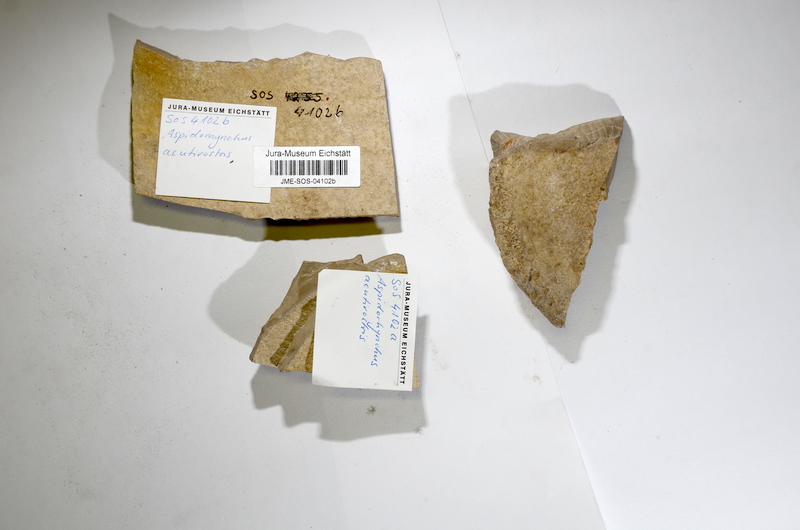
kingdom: Animalia
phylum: Chordata
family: Aspidorhynchidae
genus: Aspidorhynchus
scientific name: Aspidorhynchus acutirostris
